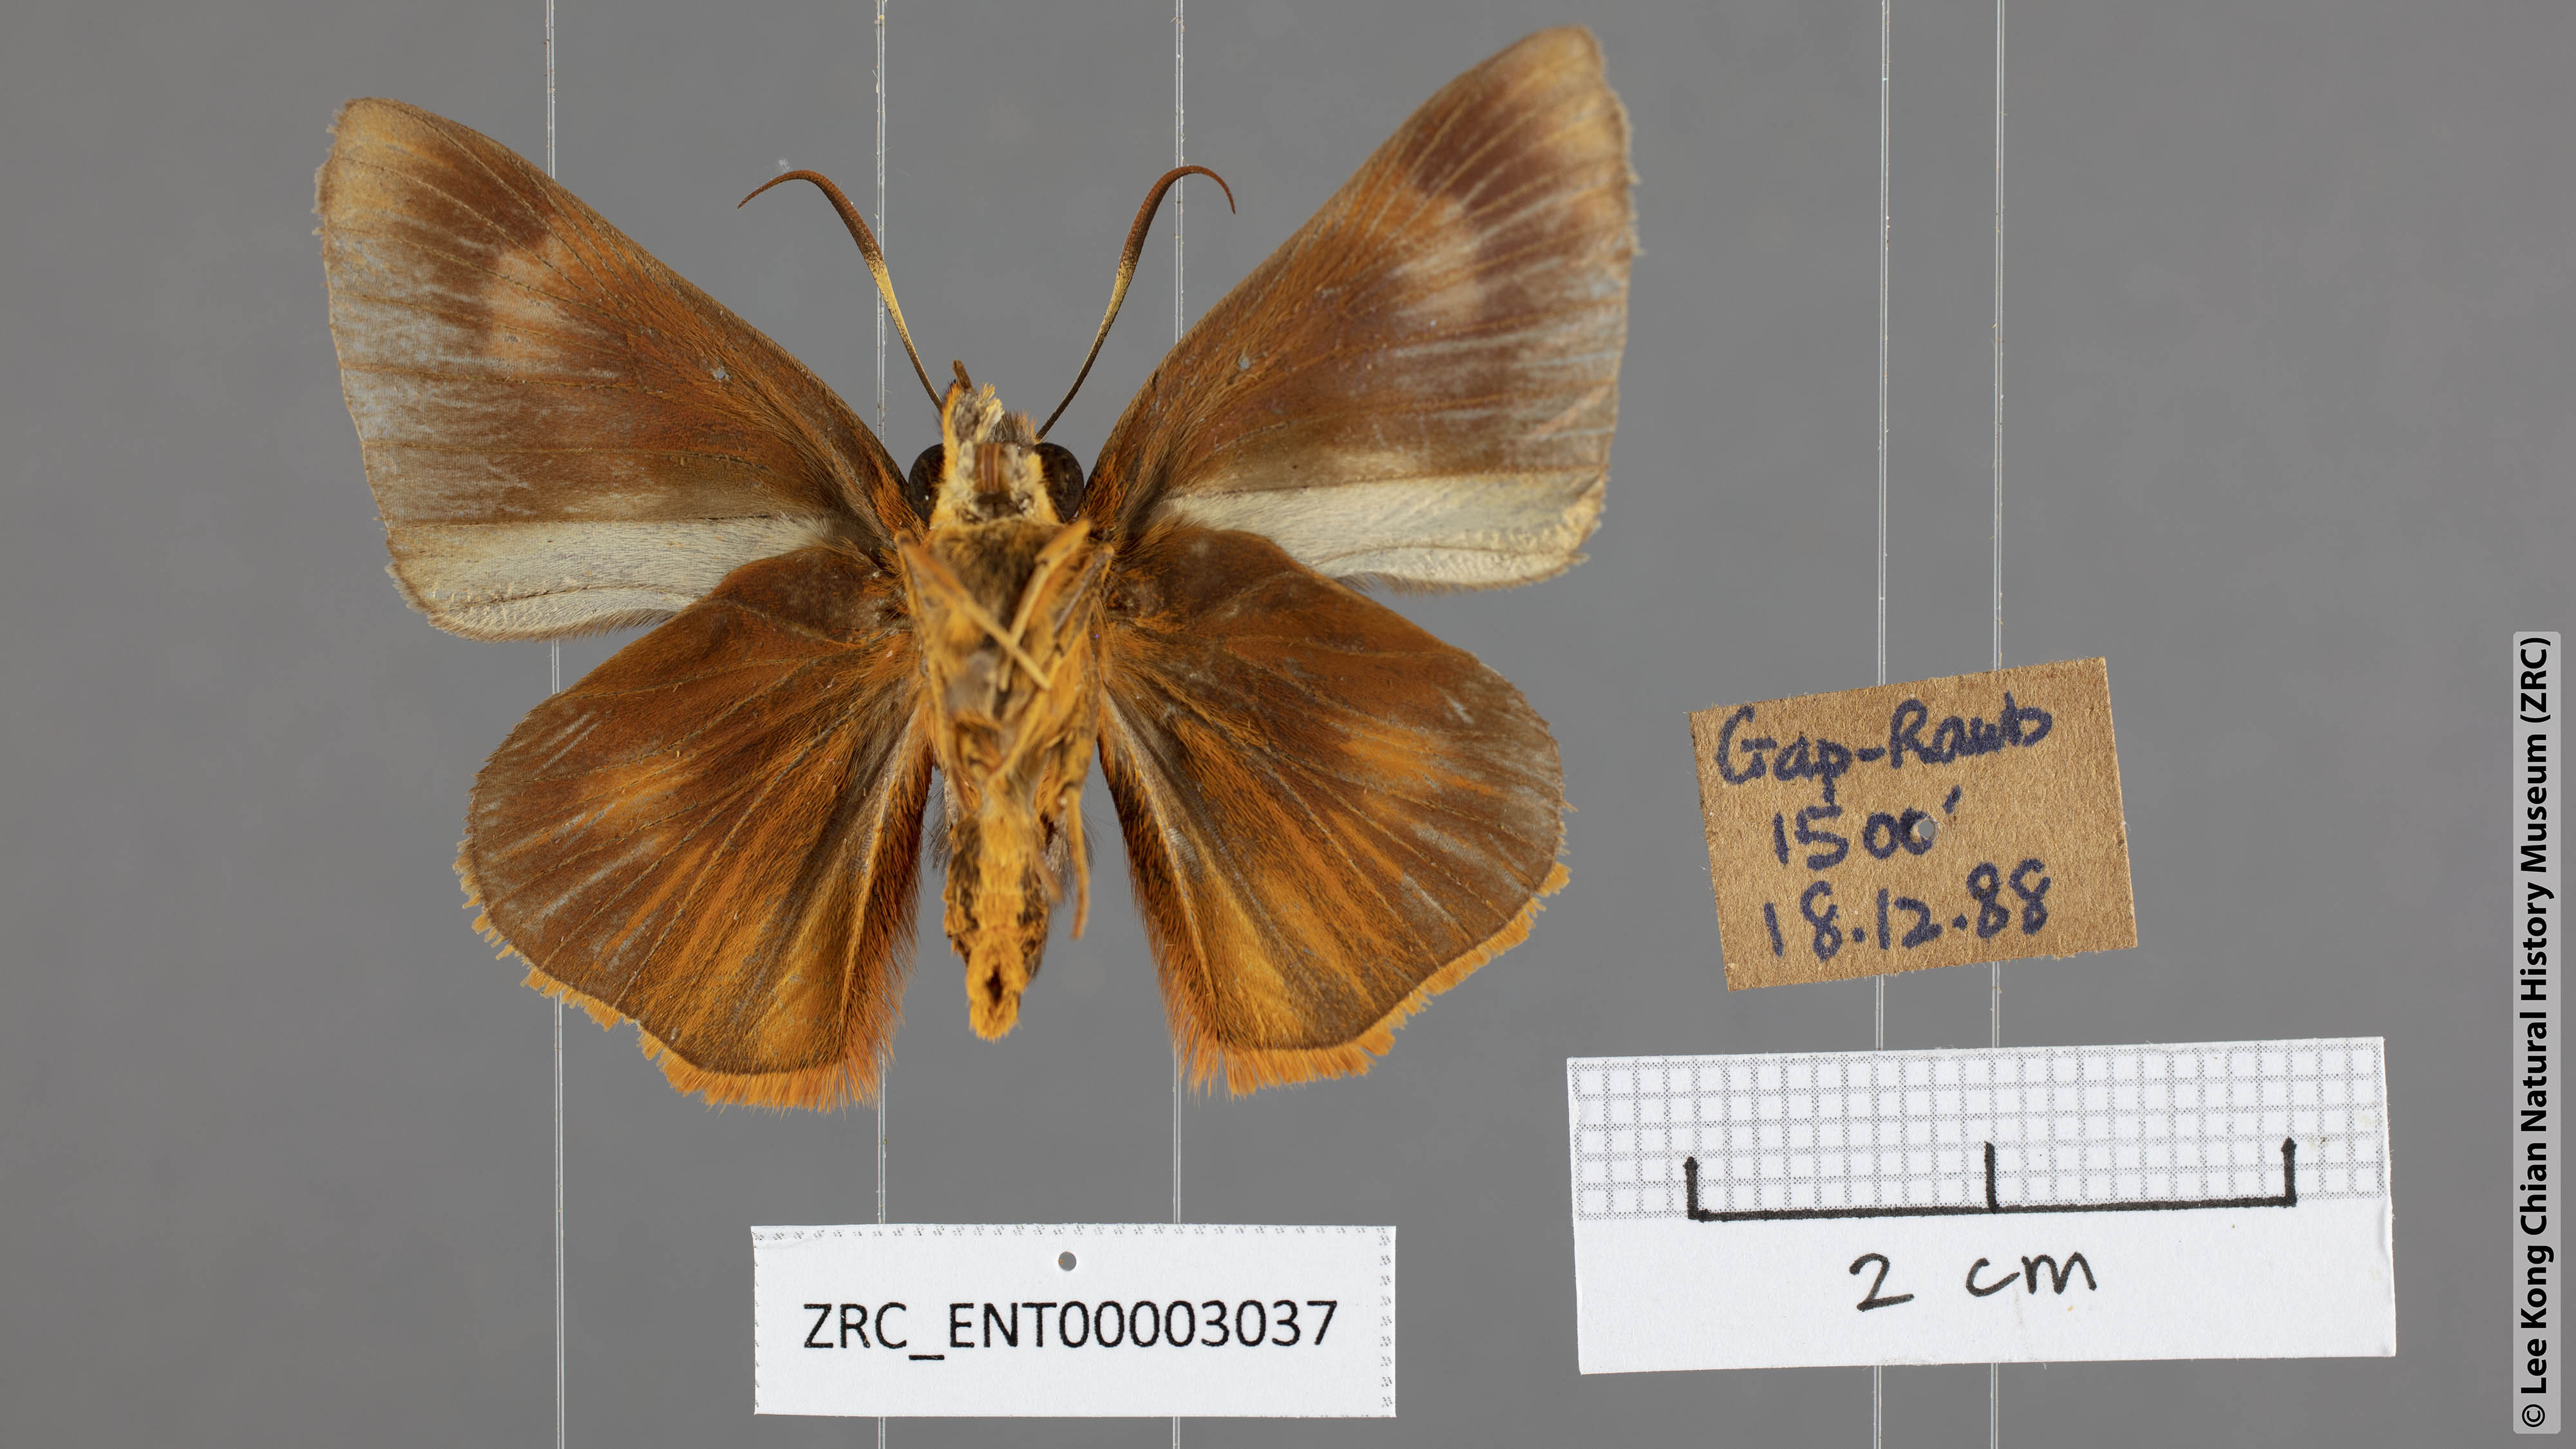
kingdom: Animalia
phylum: Arthropoda
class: Insecta
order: Lepidoptera
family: Hesperiidae
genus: Bibasis
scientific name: Bibasis Burara oedipodea
